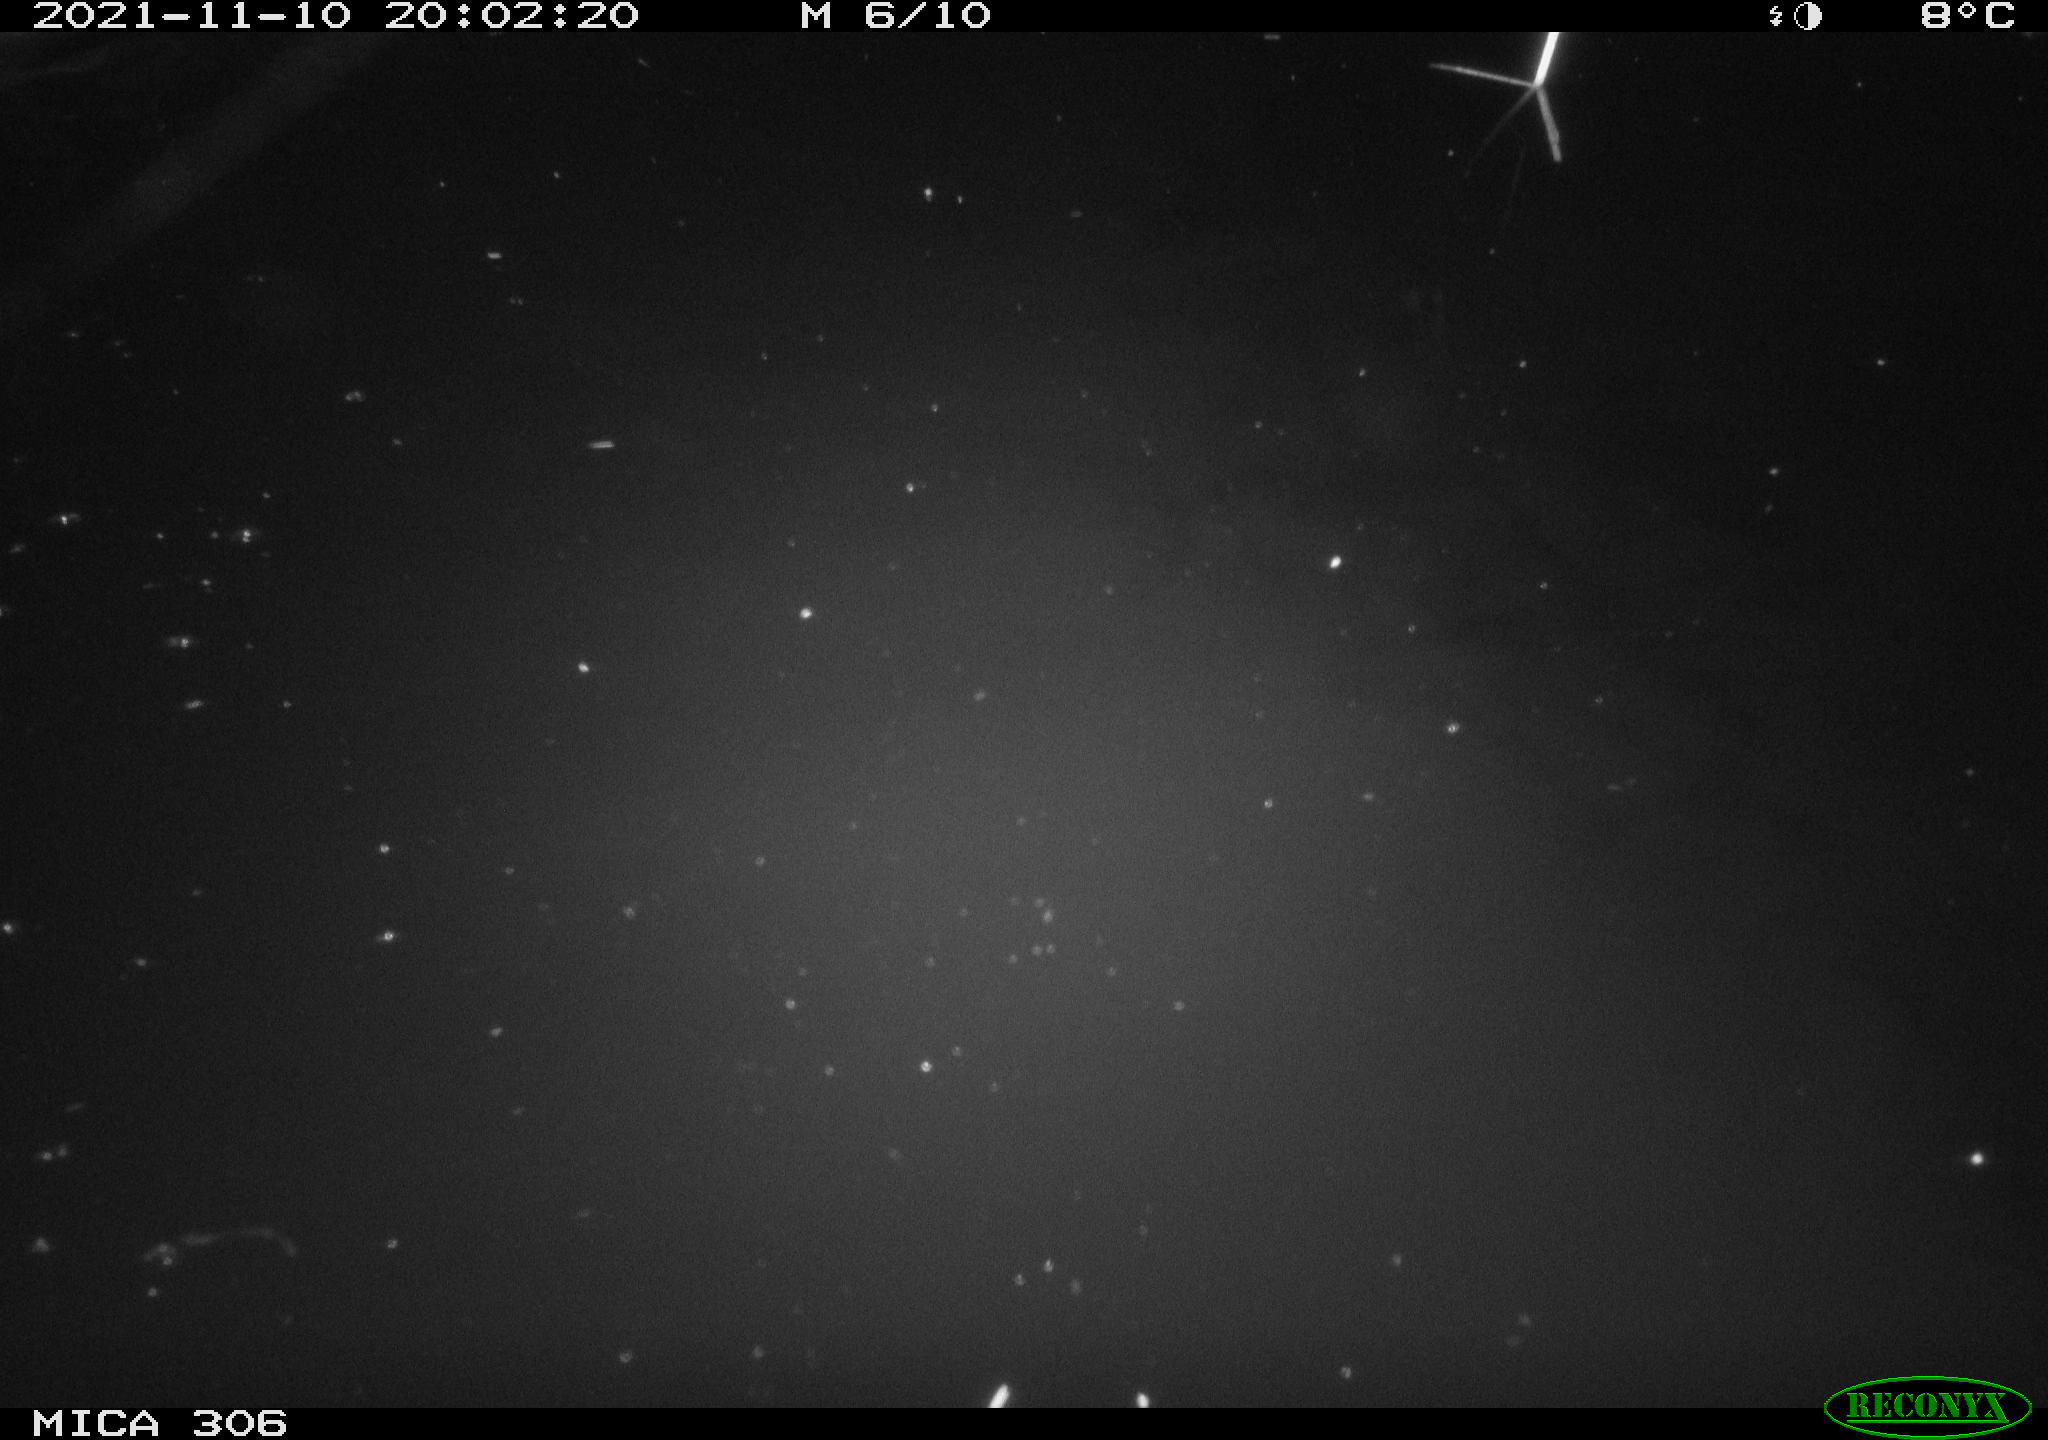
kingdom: Animalia
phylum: Chordata
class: Mammalia
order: Rodentia
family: Cricetidae
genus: Ondatra
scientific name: Ondatra zibethicus
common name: Muskrat
